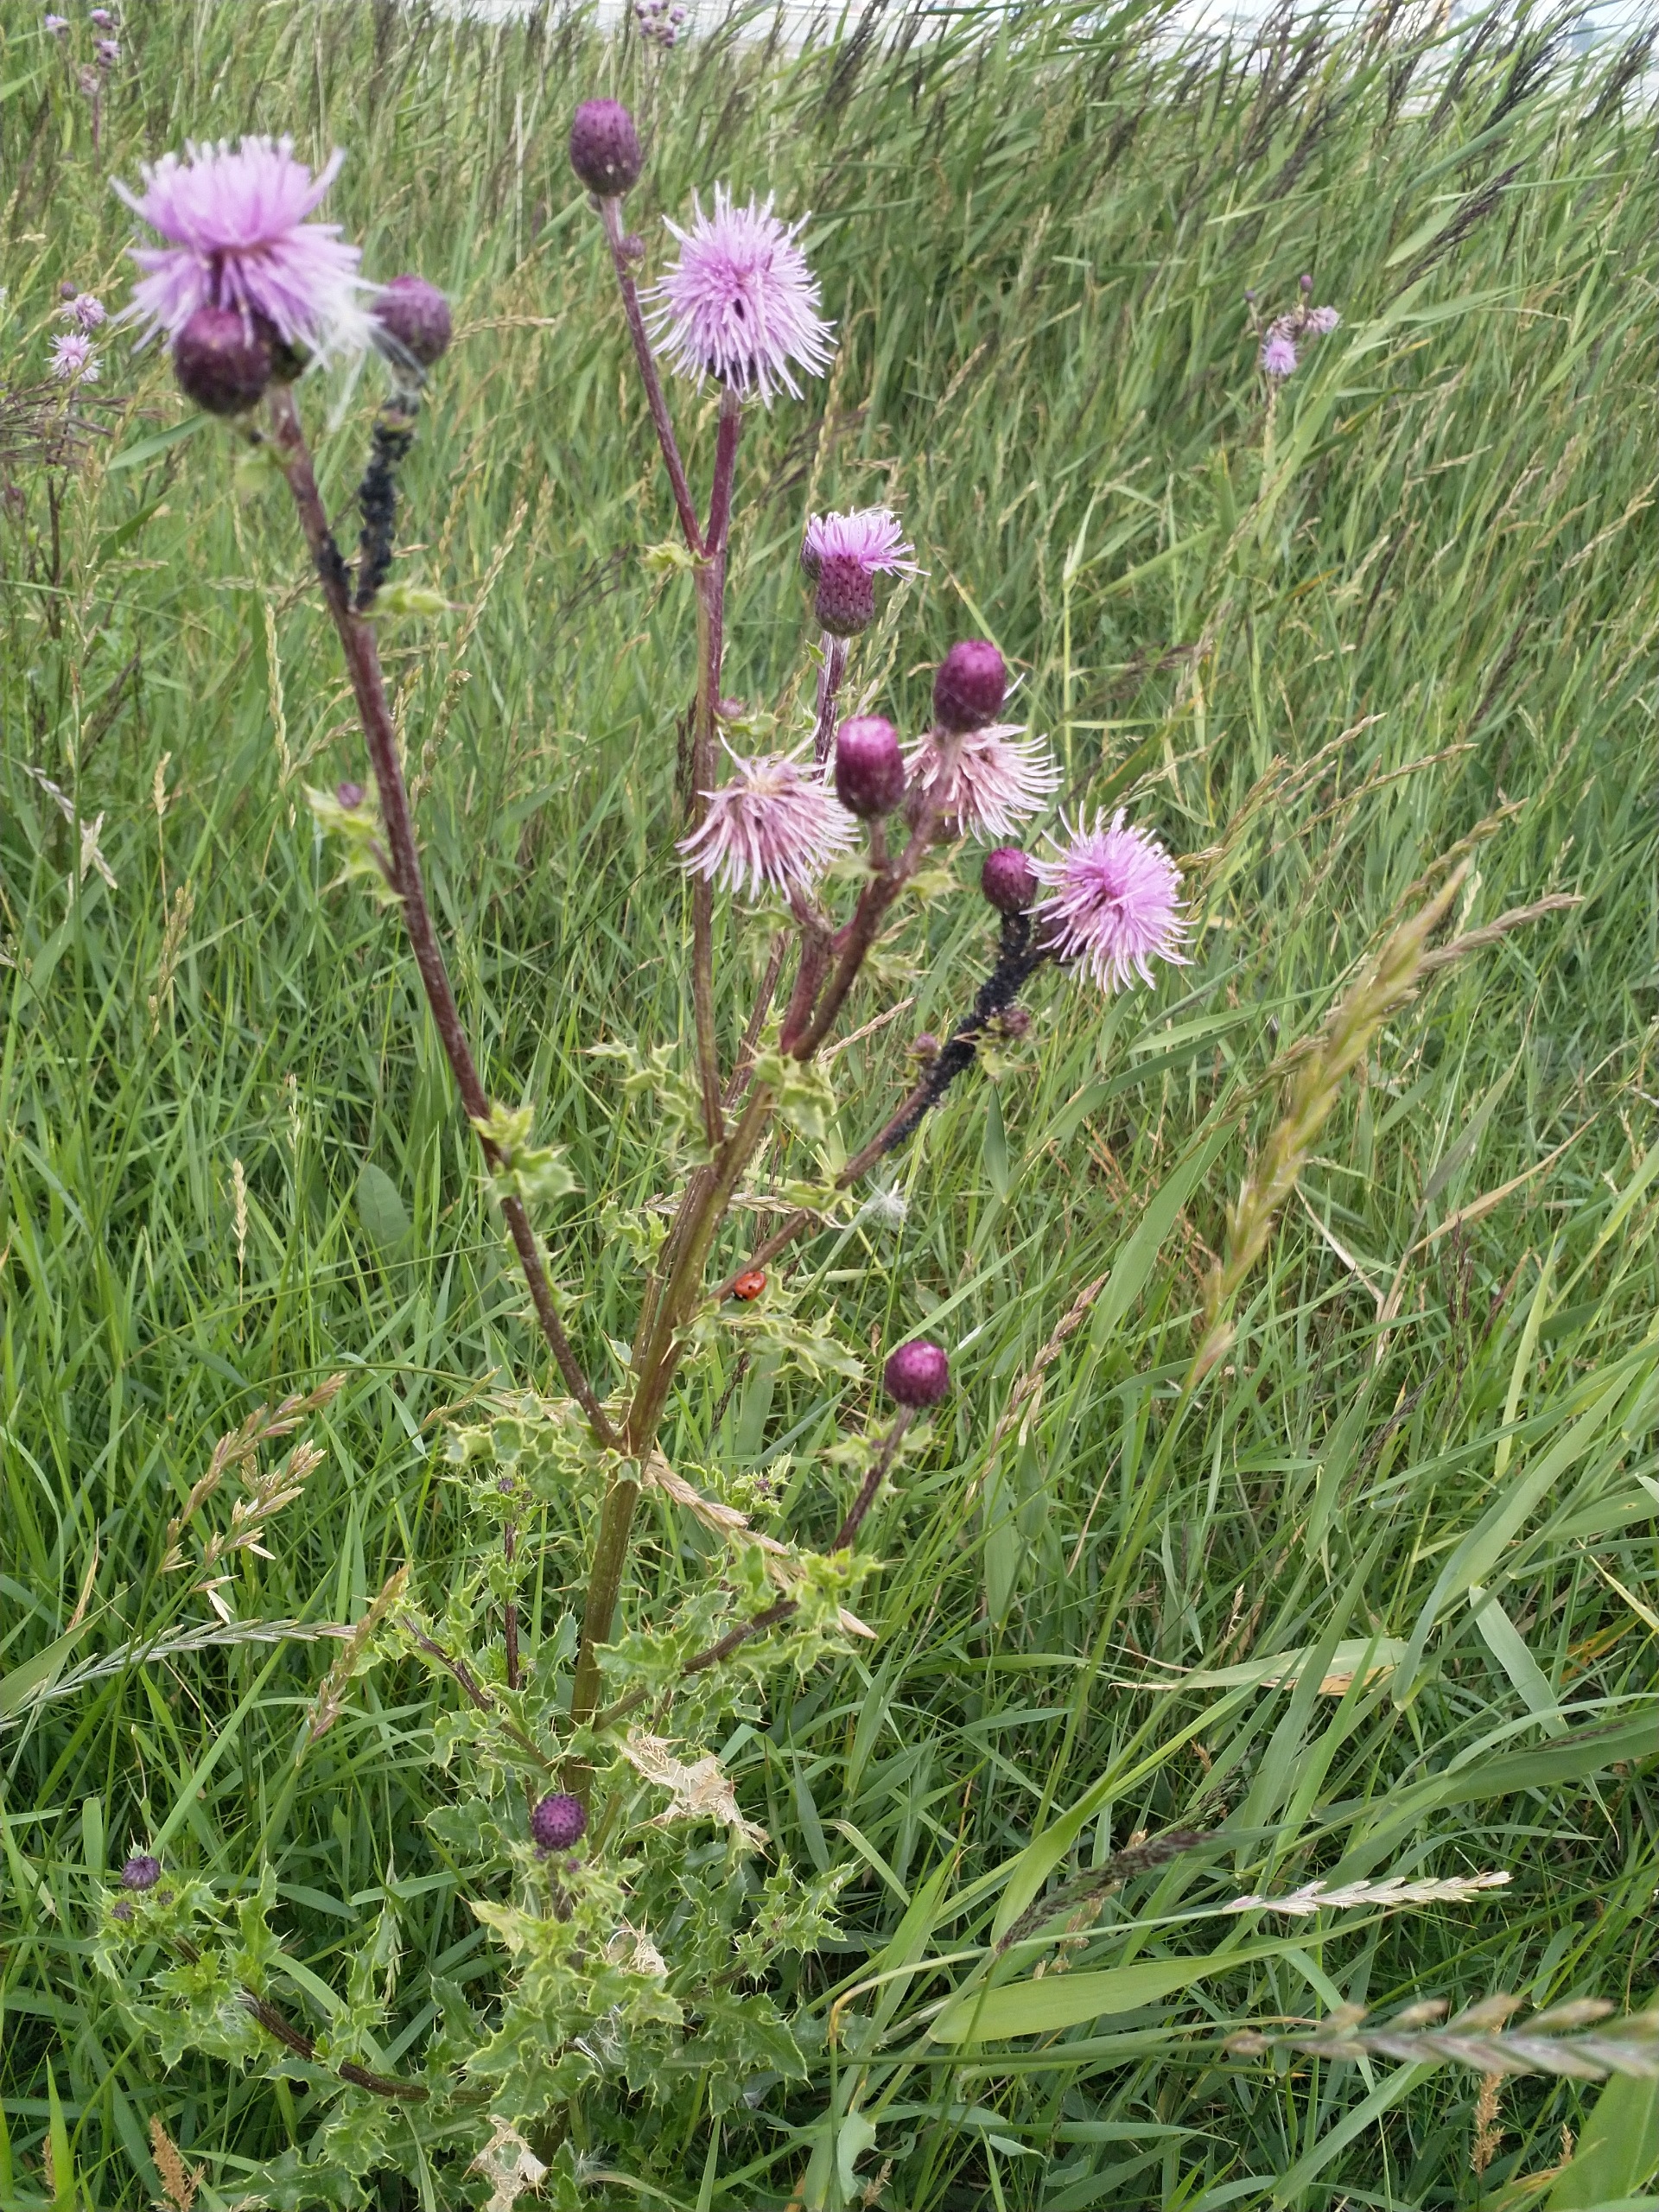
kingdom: Plantae
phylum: Tracheophyta
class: Magnoliopsida
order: Asterales
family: Asteraceae
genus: Cirsium
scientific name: Cirsium arvense
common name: Ager-tidsel
